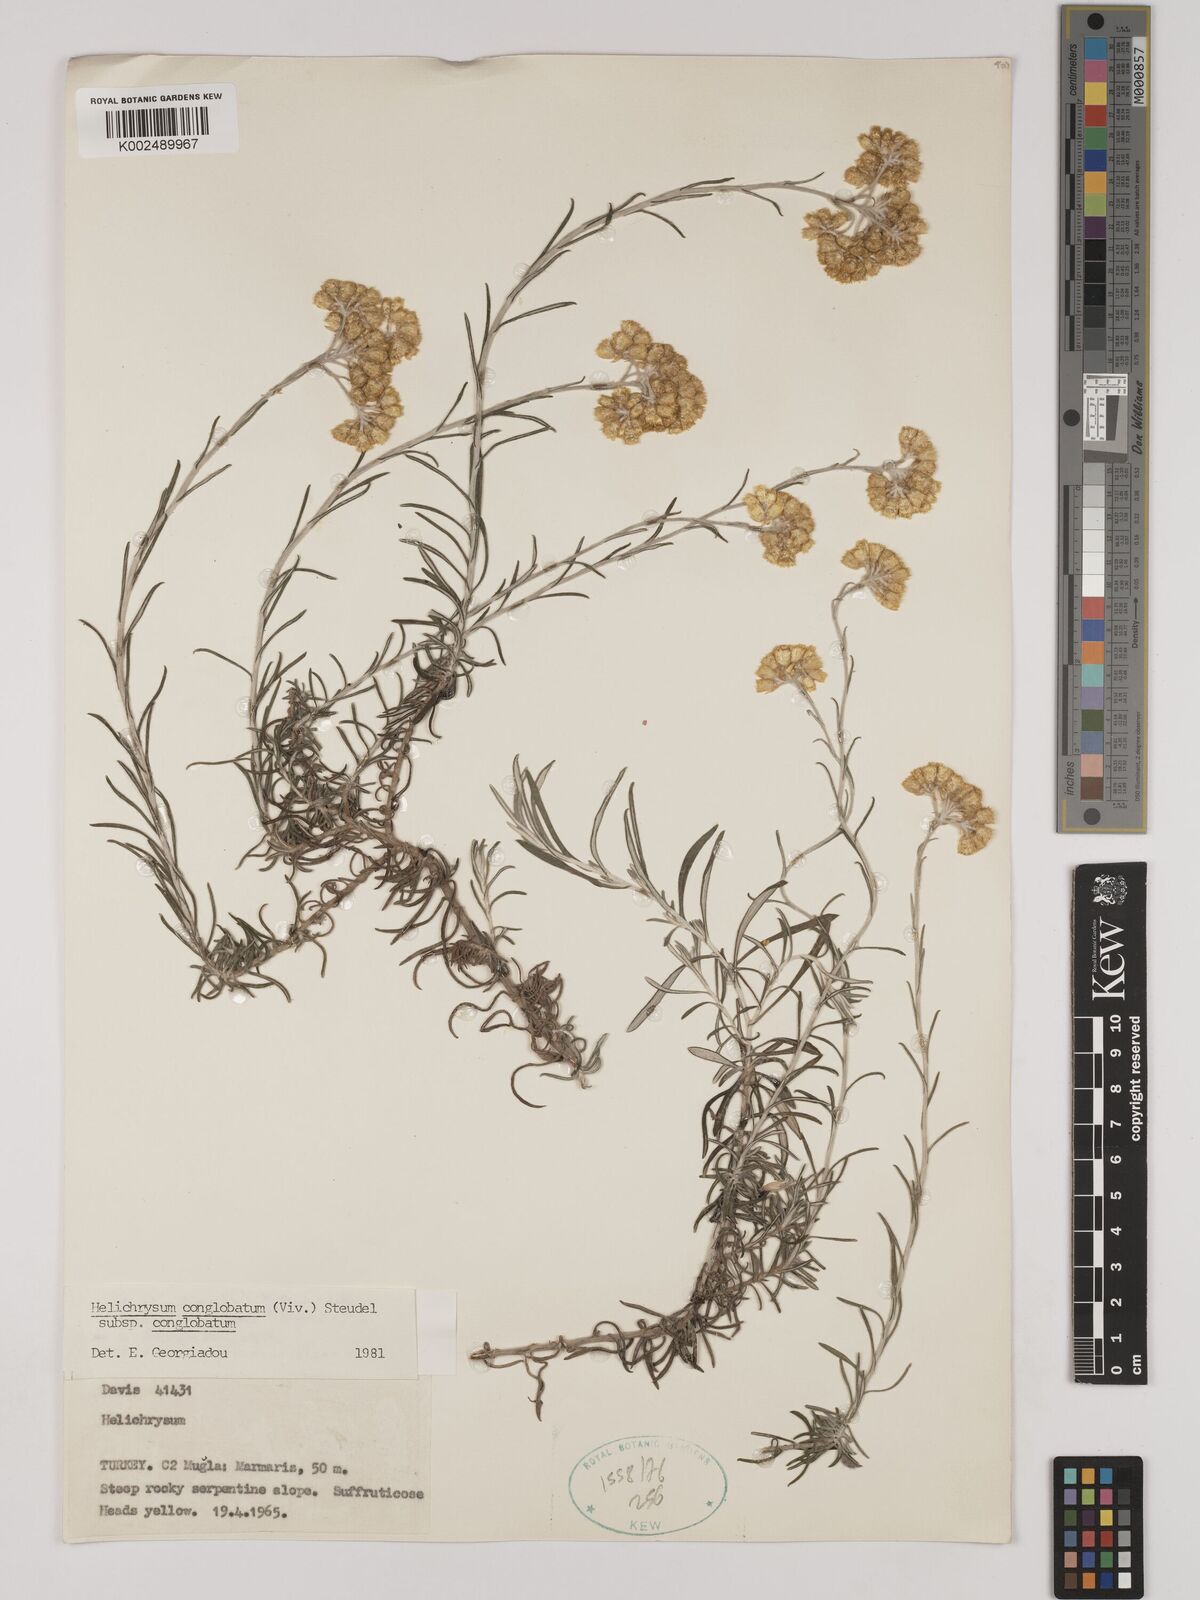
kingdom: Plantae
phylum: Tracheophyta
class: Magnoliopsida
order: Asterales
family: Asteraceae
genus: Helichrysum
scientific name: Helichrysum stoechas
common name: Goldilocks
